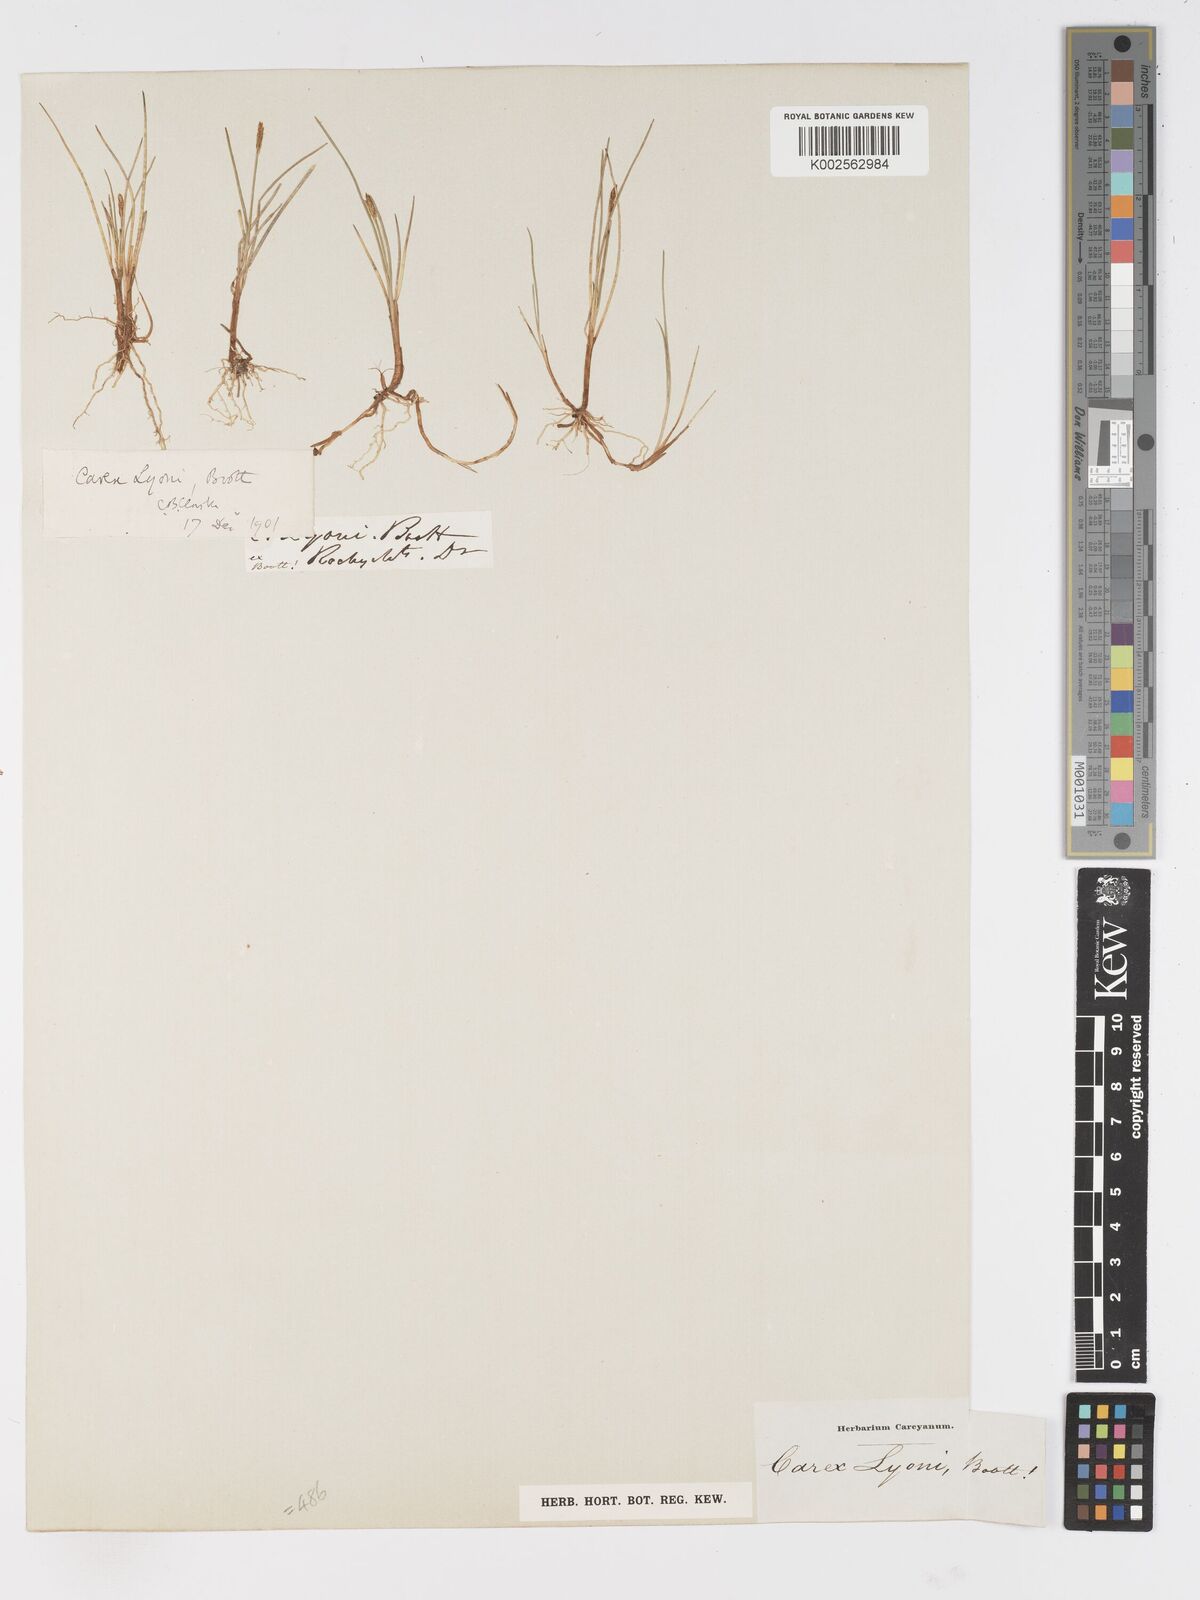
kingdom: Plantae
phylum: Tracheophyta
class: Liliopsida
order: Poales
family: Cyperaceae
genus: Carex
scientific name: Carex microglochin
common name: Bristle sedge
